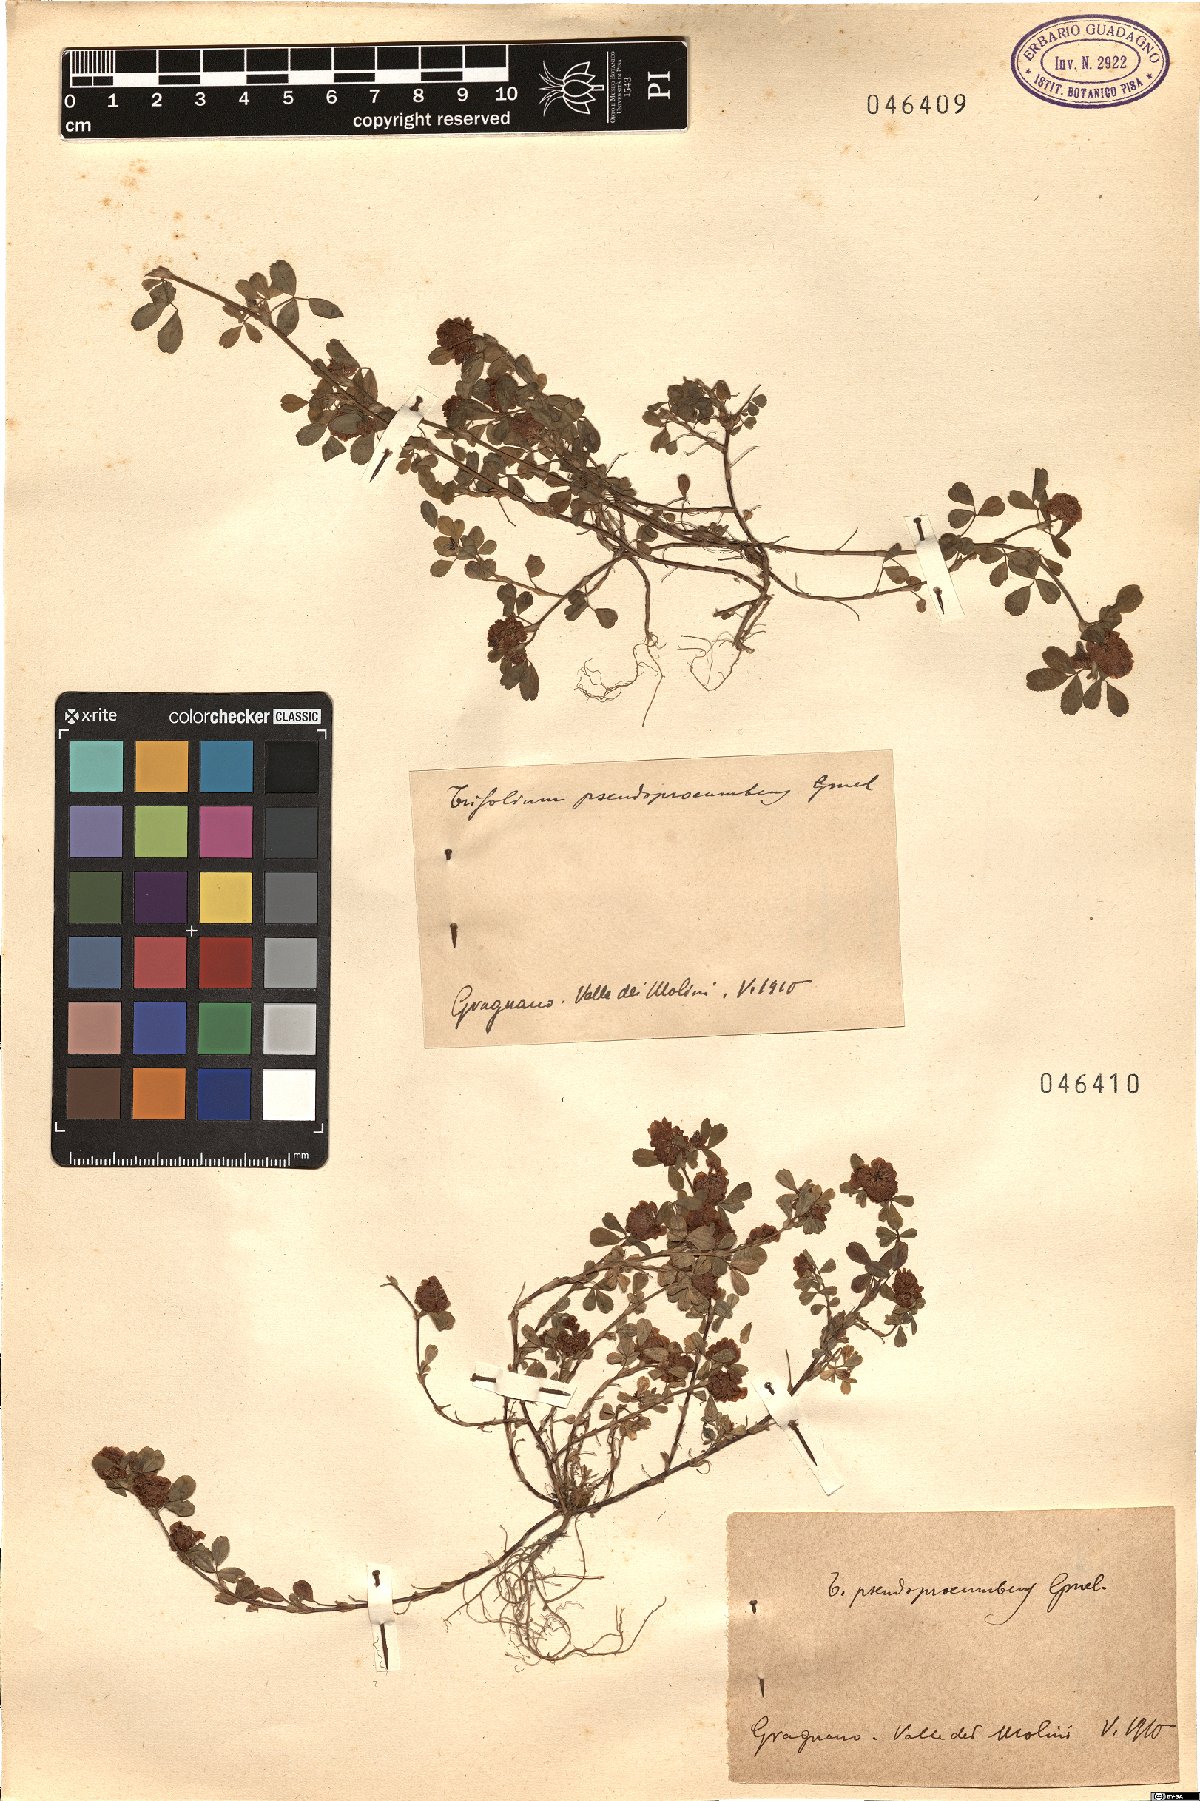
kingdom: Plantae
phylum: Tracheophyta
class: Magnoliopsida
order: Fabales
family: Fabaceae
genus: Trifolium
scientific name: Trifolium campestre
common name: Field clover
